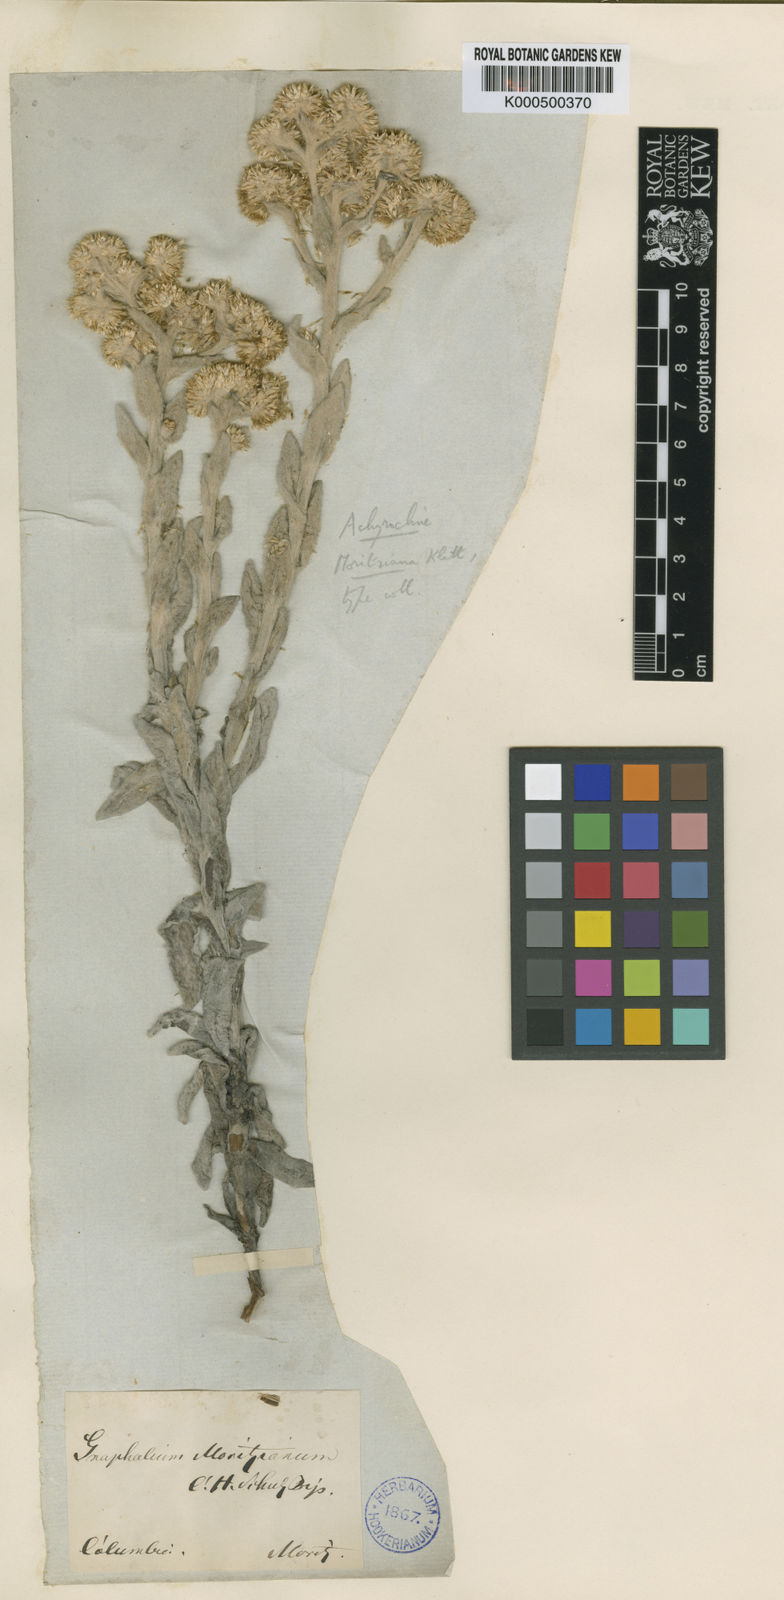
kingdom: Plantae
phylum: Tracheophyta
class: Magnoliopsida
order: Asterales
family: Asteraceae
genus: Pseudognaphalium
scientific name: Pseudognaphalium moritzianum
